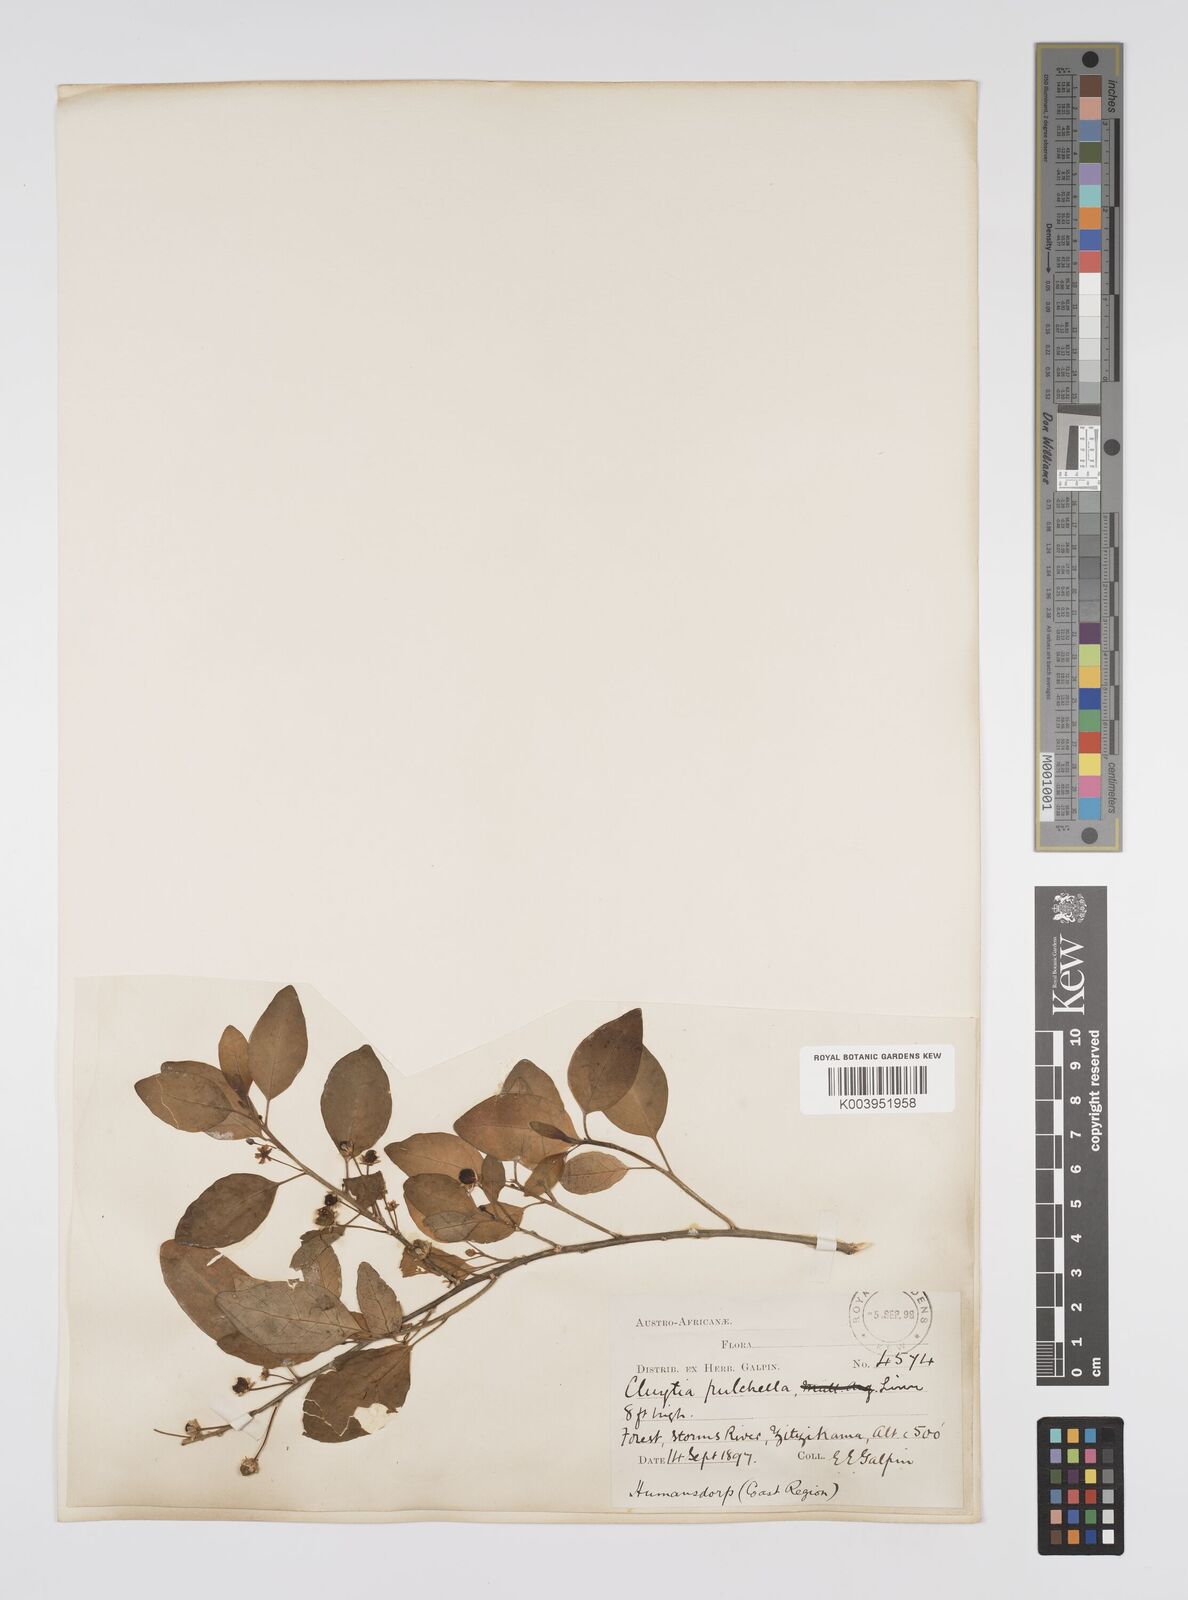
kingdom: Plantae
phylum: Tracheophyta
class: Magnoliopsida
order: Malpighiales
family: Peraceae
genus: Clutia
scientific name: Clutia pulchella
